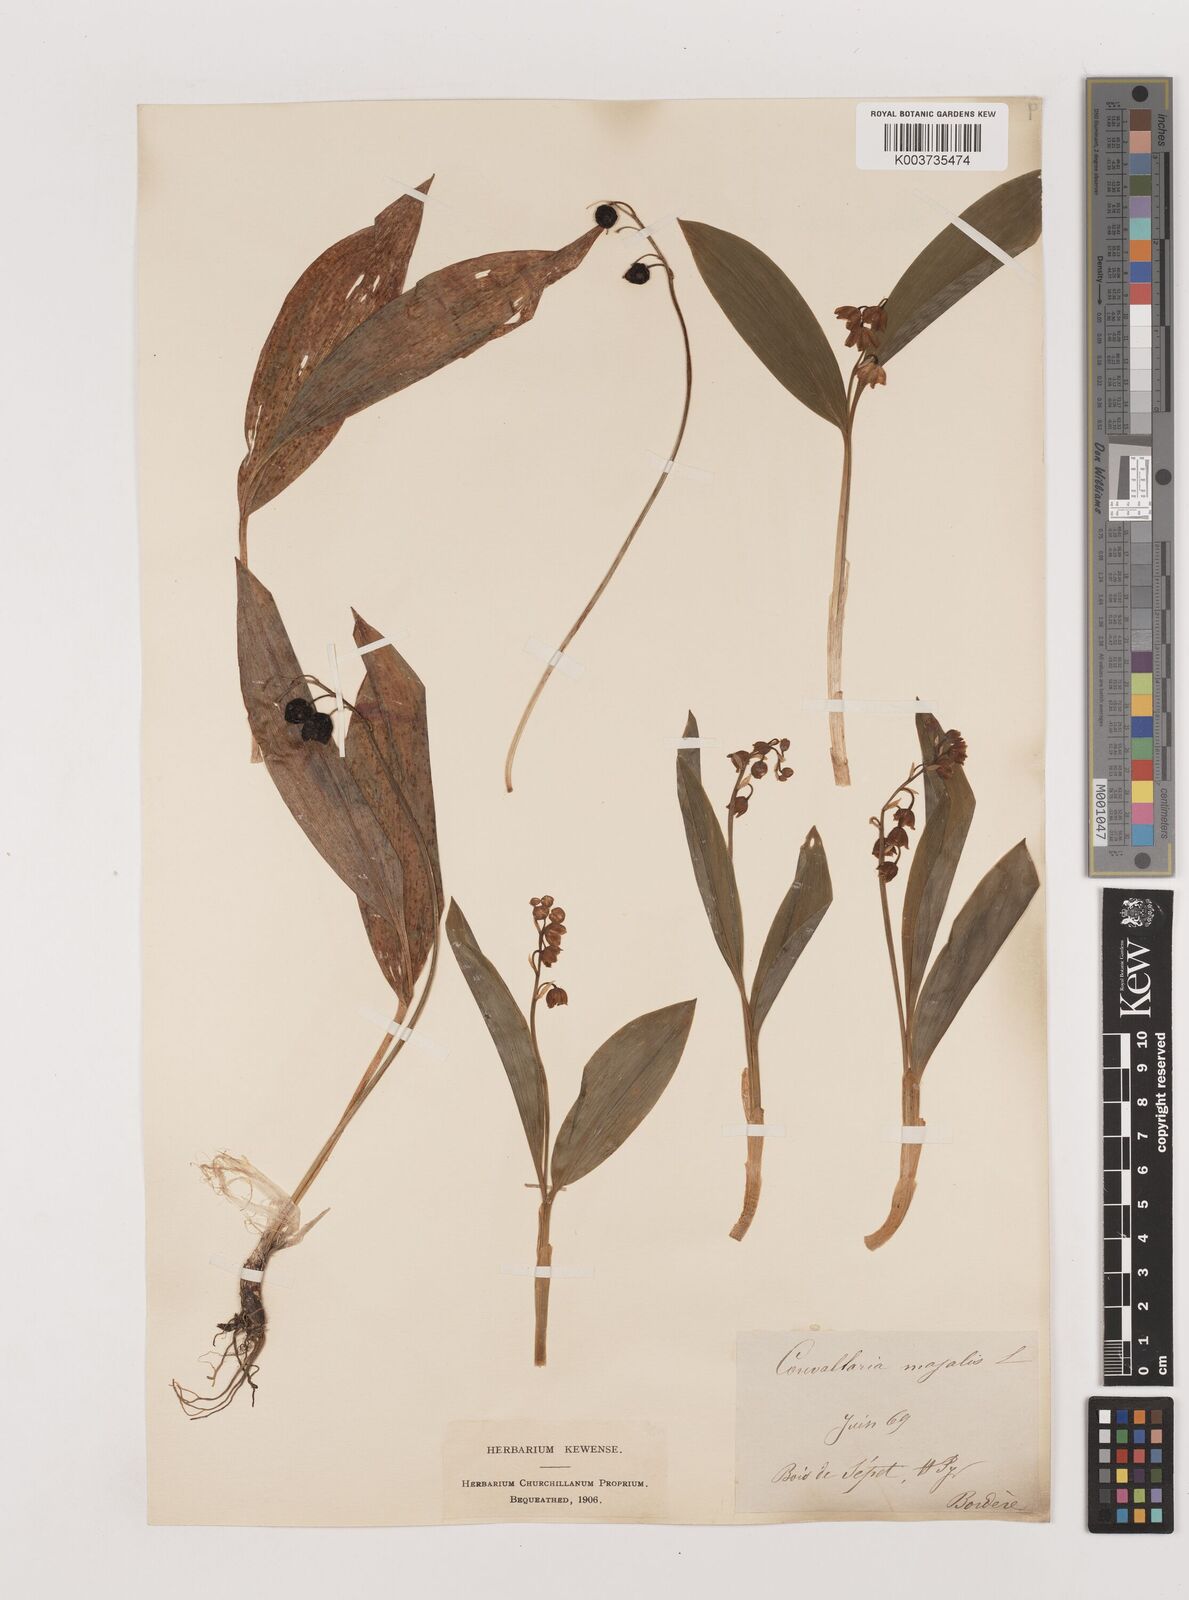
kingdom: Plantae
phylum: Tracheophyta
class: Liliopsida
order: Asparagales
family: Asparagaceae
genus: Convallaria
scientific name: Convallaria majalis
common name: Lily-of-the-valley
